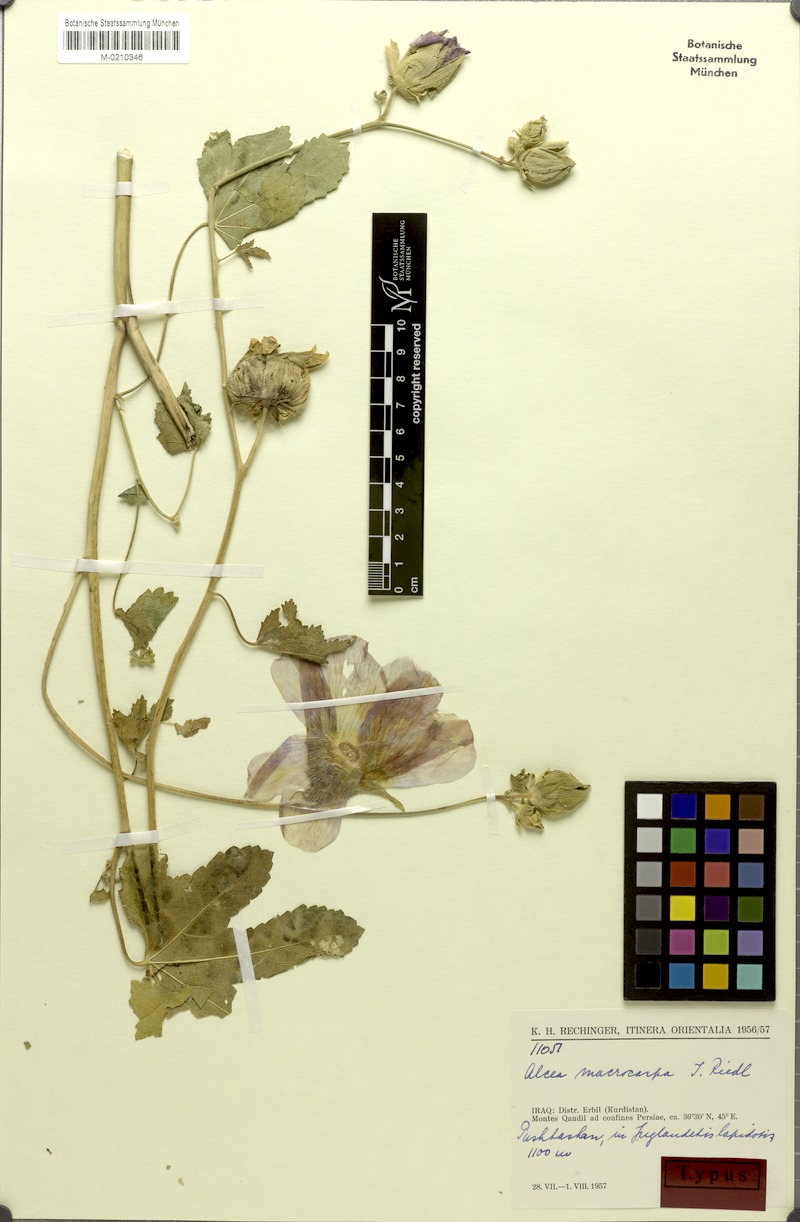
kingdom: Plantae
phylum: Tracheophyta
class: Magnoliopsida
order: Malvales
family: Malvaceae
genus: Alcea
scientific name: Alcea rechingeri
